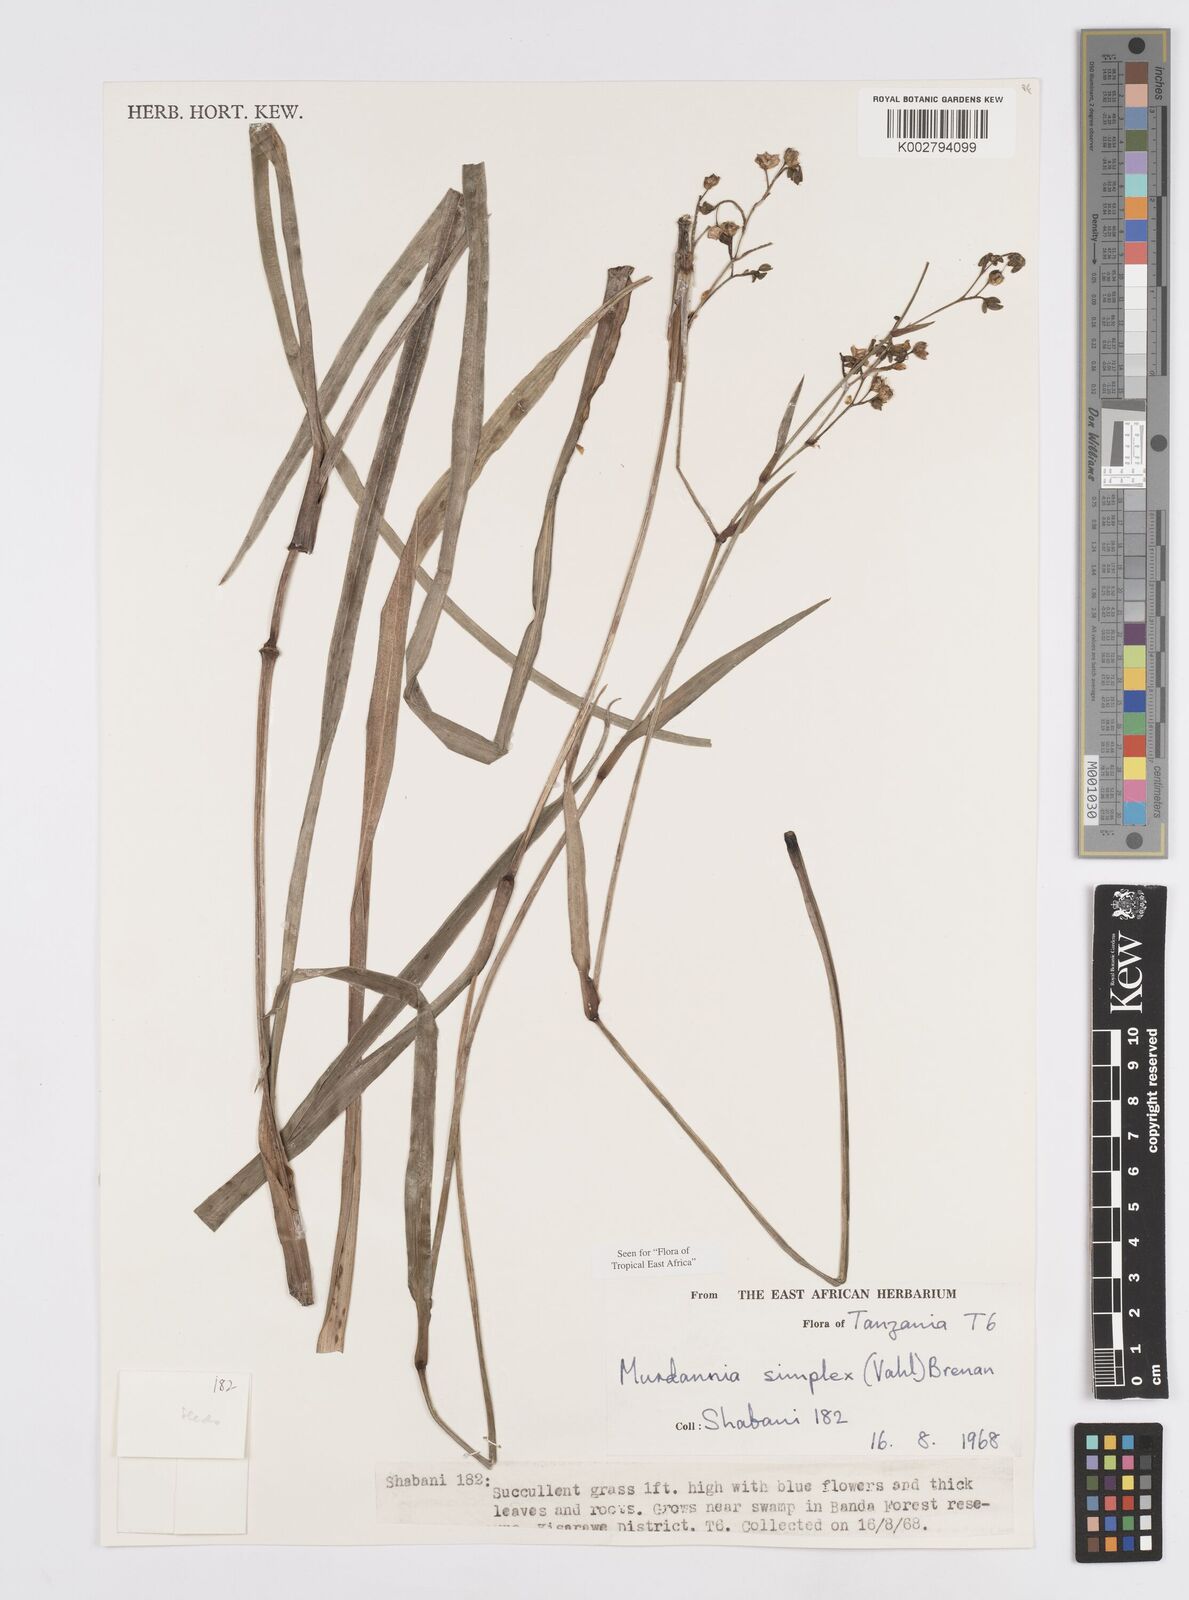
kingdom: Plantae
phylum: Tracheophyta
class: Liliopsida
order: Commelinales
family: Commelinaceae
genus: Murdannia
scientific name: Murdannia simplex
